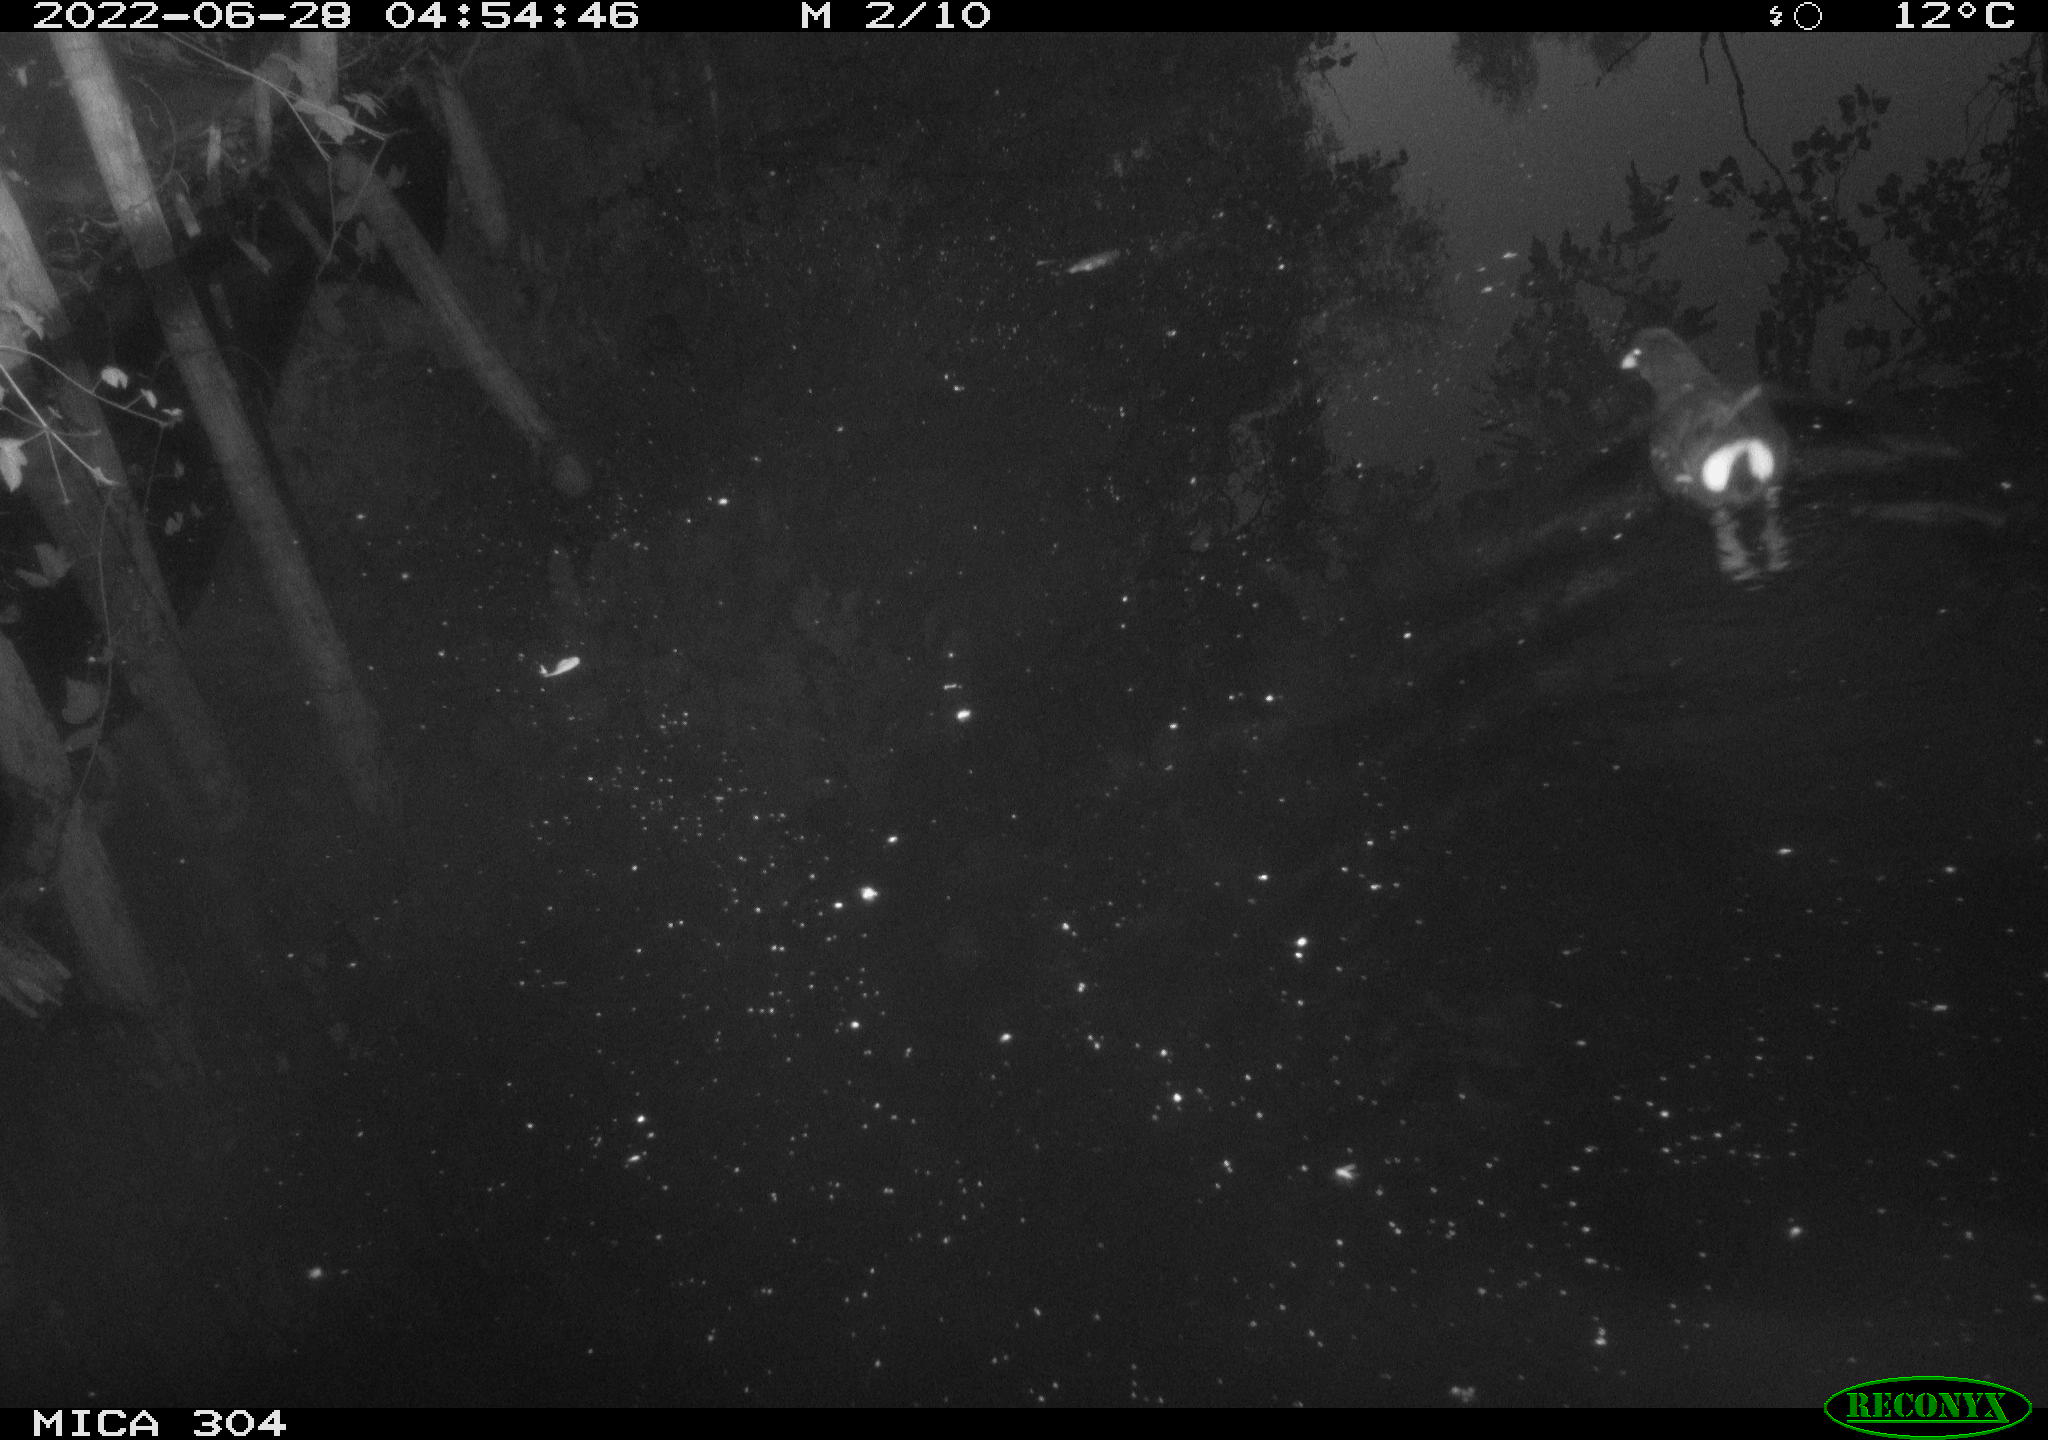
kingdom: Animalia
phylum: Chordata
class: Aves
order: Gruiformes
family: Rallidae
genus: Gallinula
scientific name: Gallinula chloropus
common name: Common moorhen
